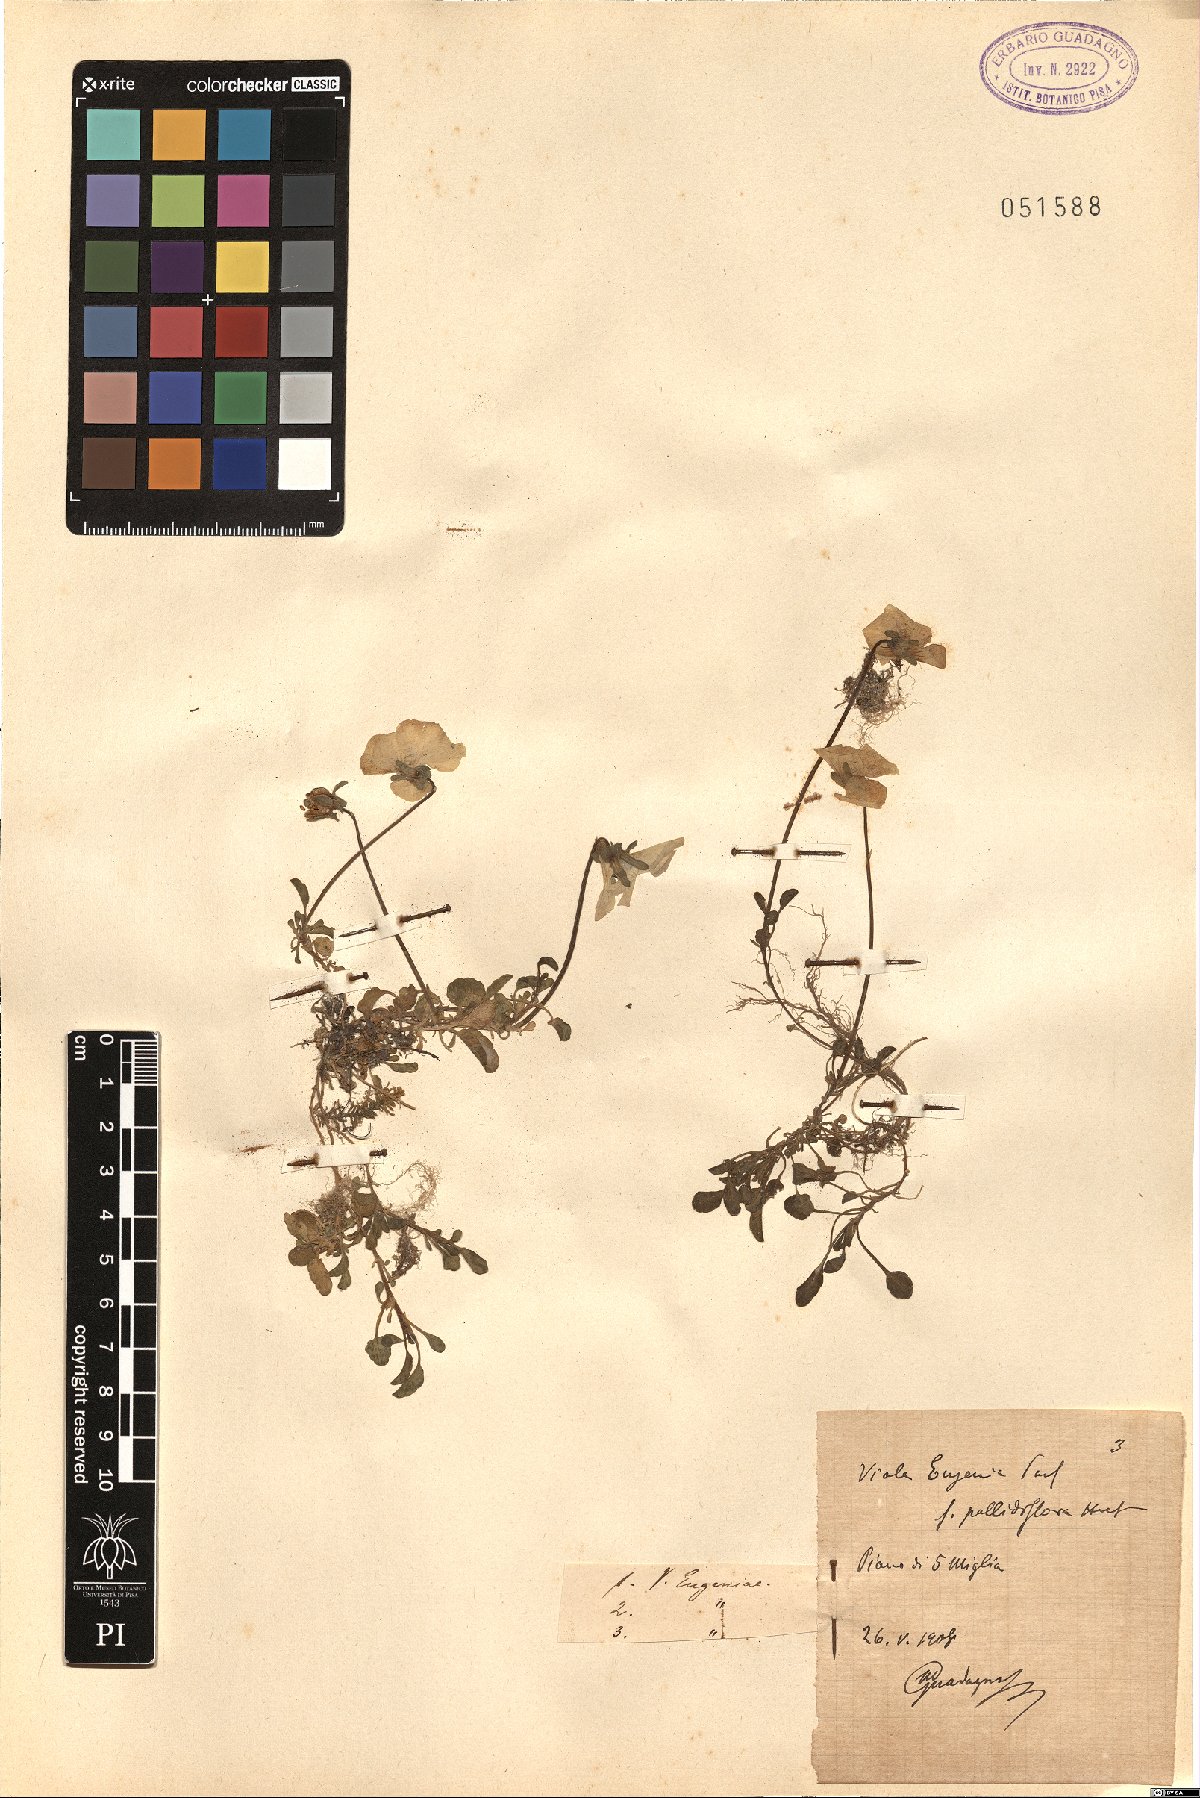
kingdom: Plantae
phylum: Tracheophyta
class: Magnoliopsida
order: Malpighiales
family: Violaceae
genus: Viola
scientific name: Viola eugeniae
